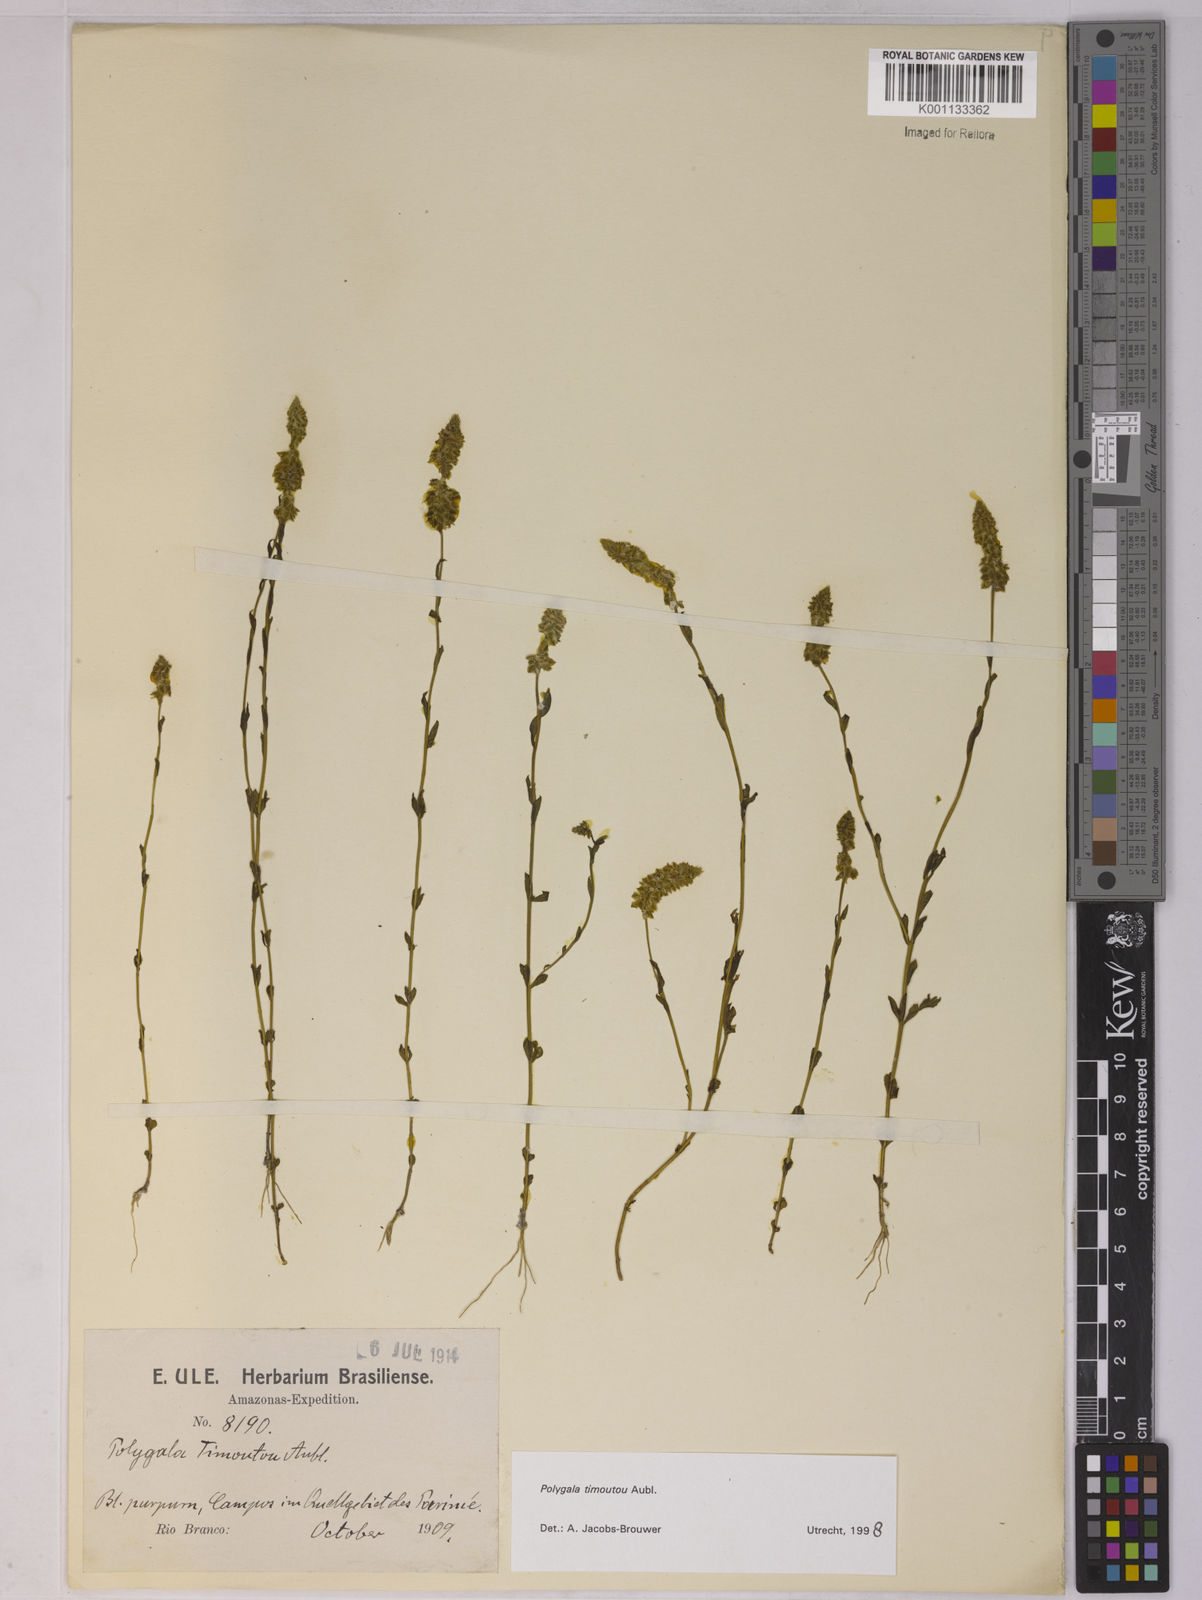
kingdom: Plantae
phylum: Tracheophyta
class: Magnoliopsida
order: Fabales
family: Polygalaceae
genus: Polygala
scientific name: Polygala timoutoides
